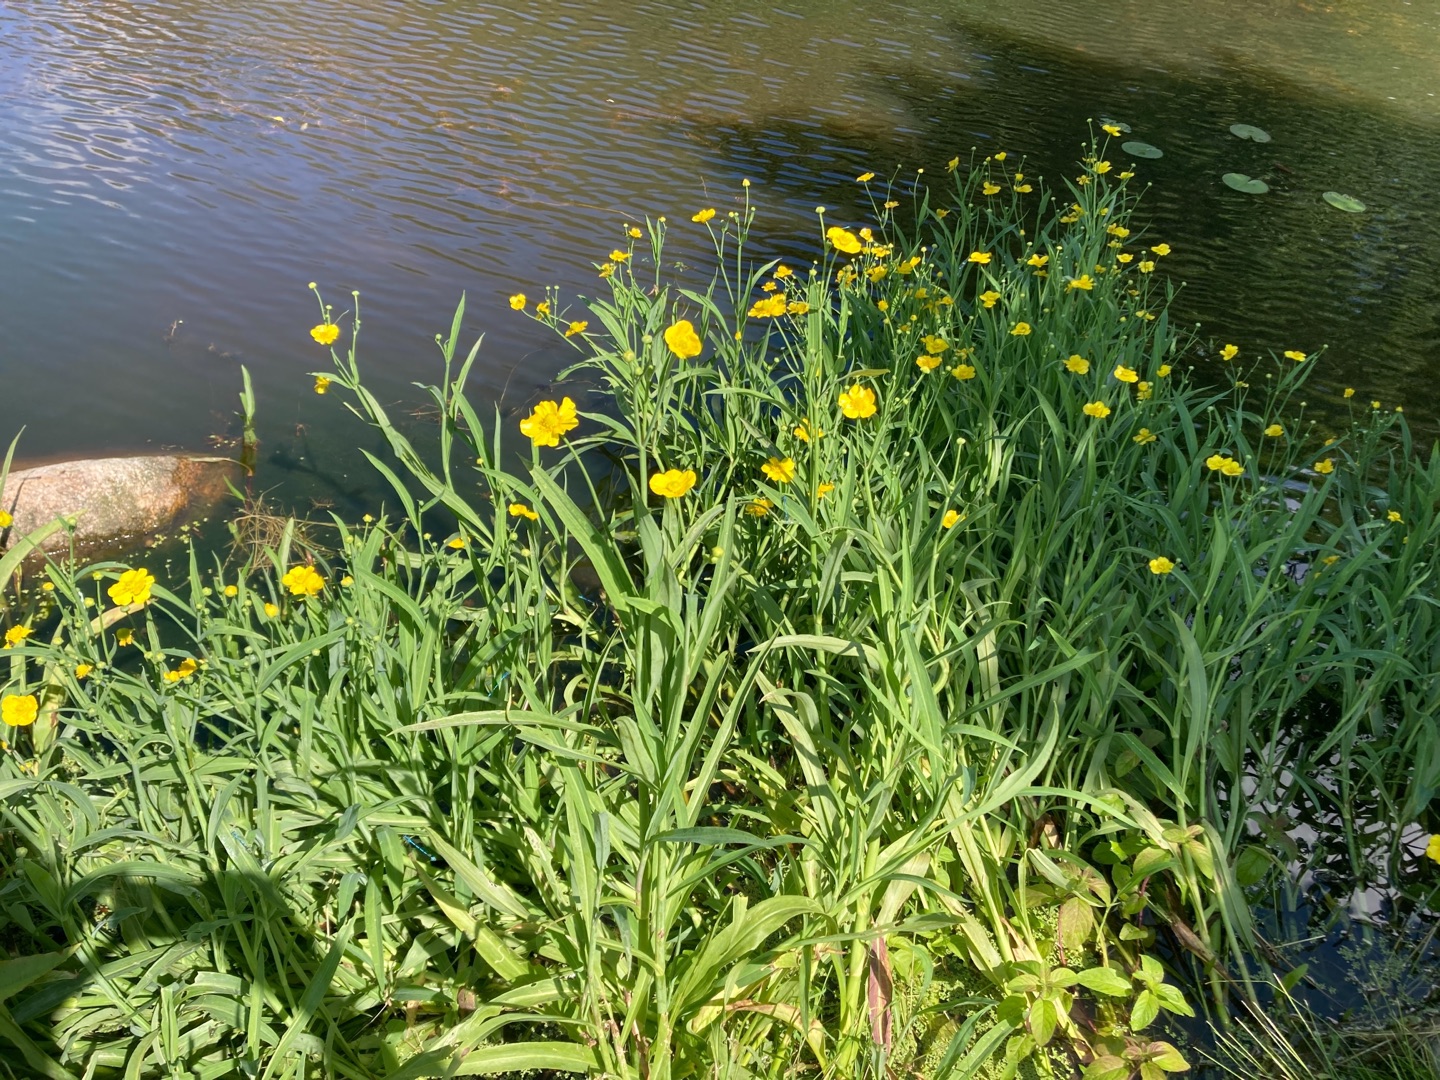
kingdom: Plantae
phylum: Tracheophyta
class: Magnoliopsida
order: Ranunculales
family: Ranunculaceae
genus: Ranunculus
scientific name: Ranunculus lingua
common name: Langbladet ranunkel
